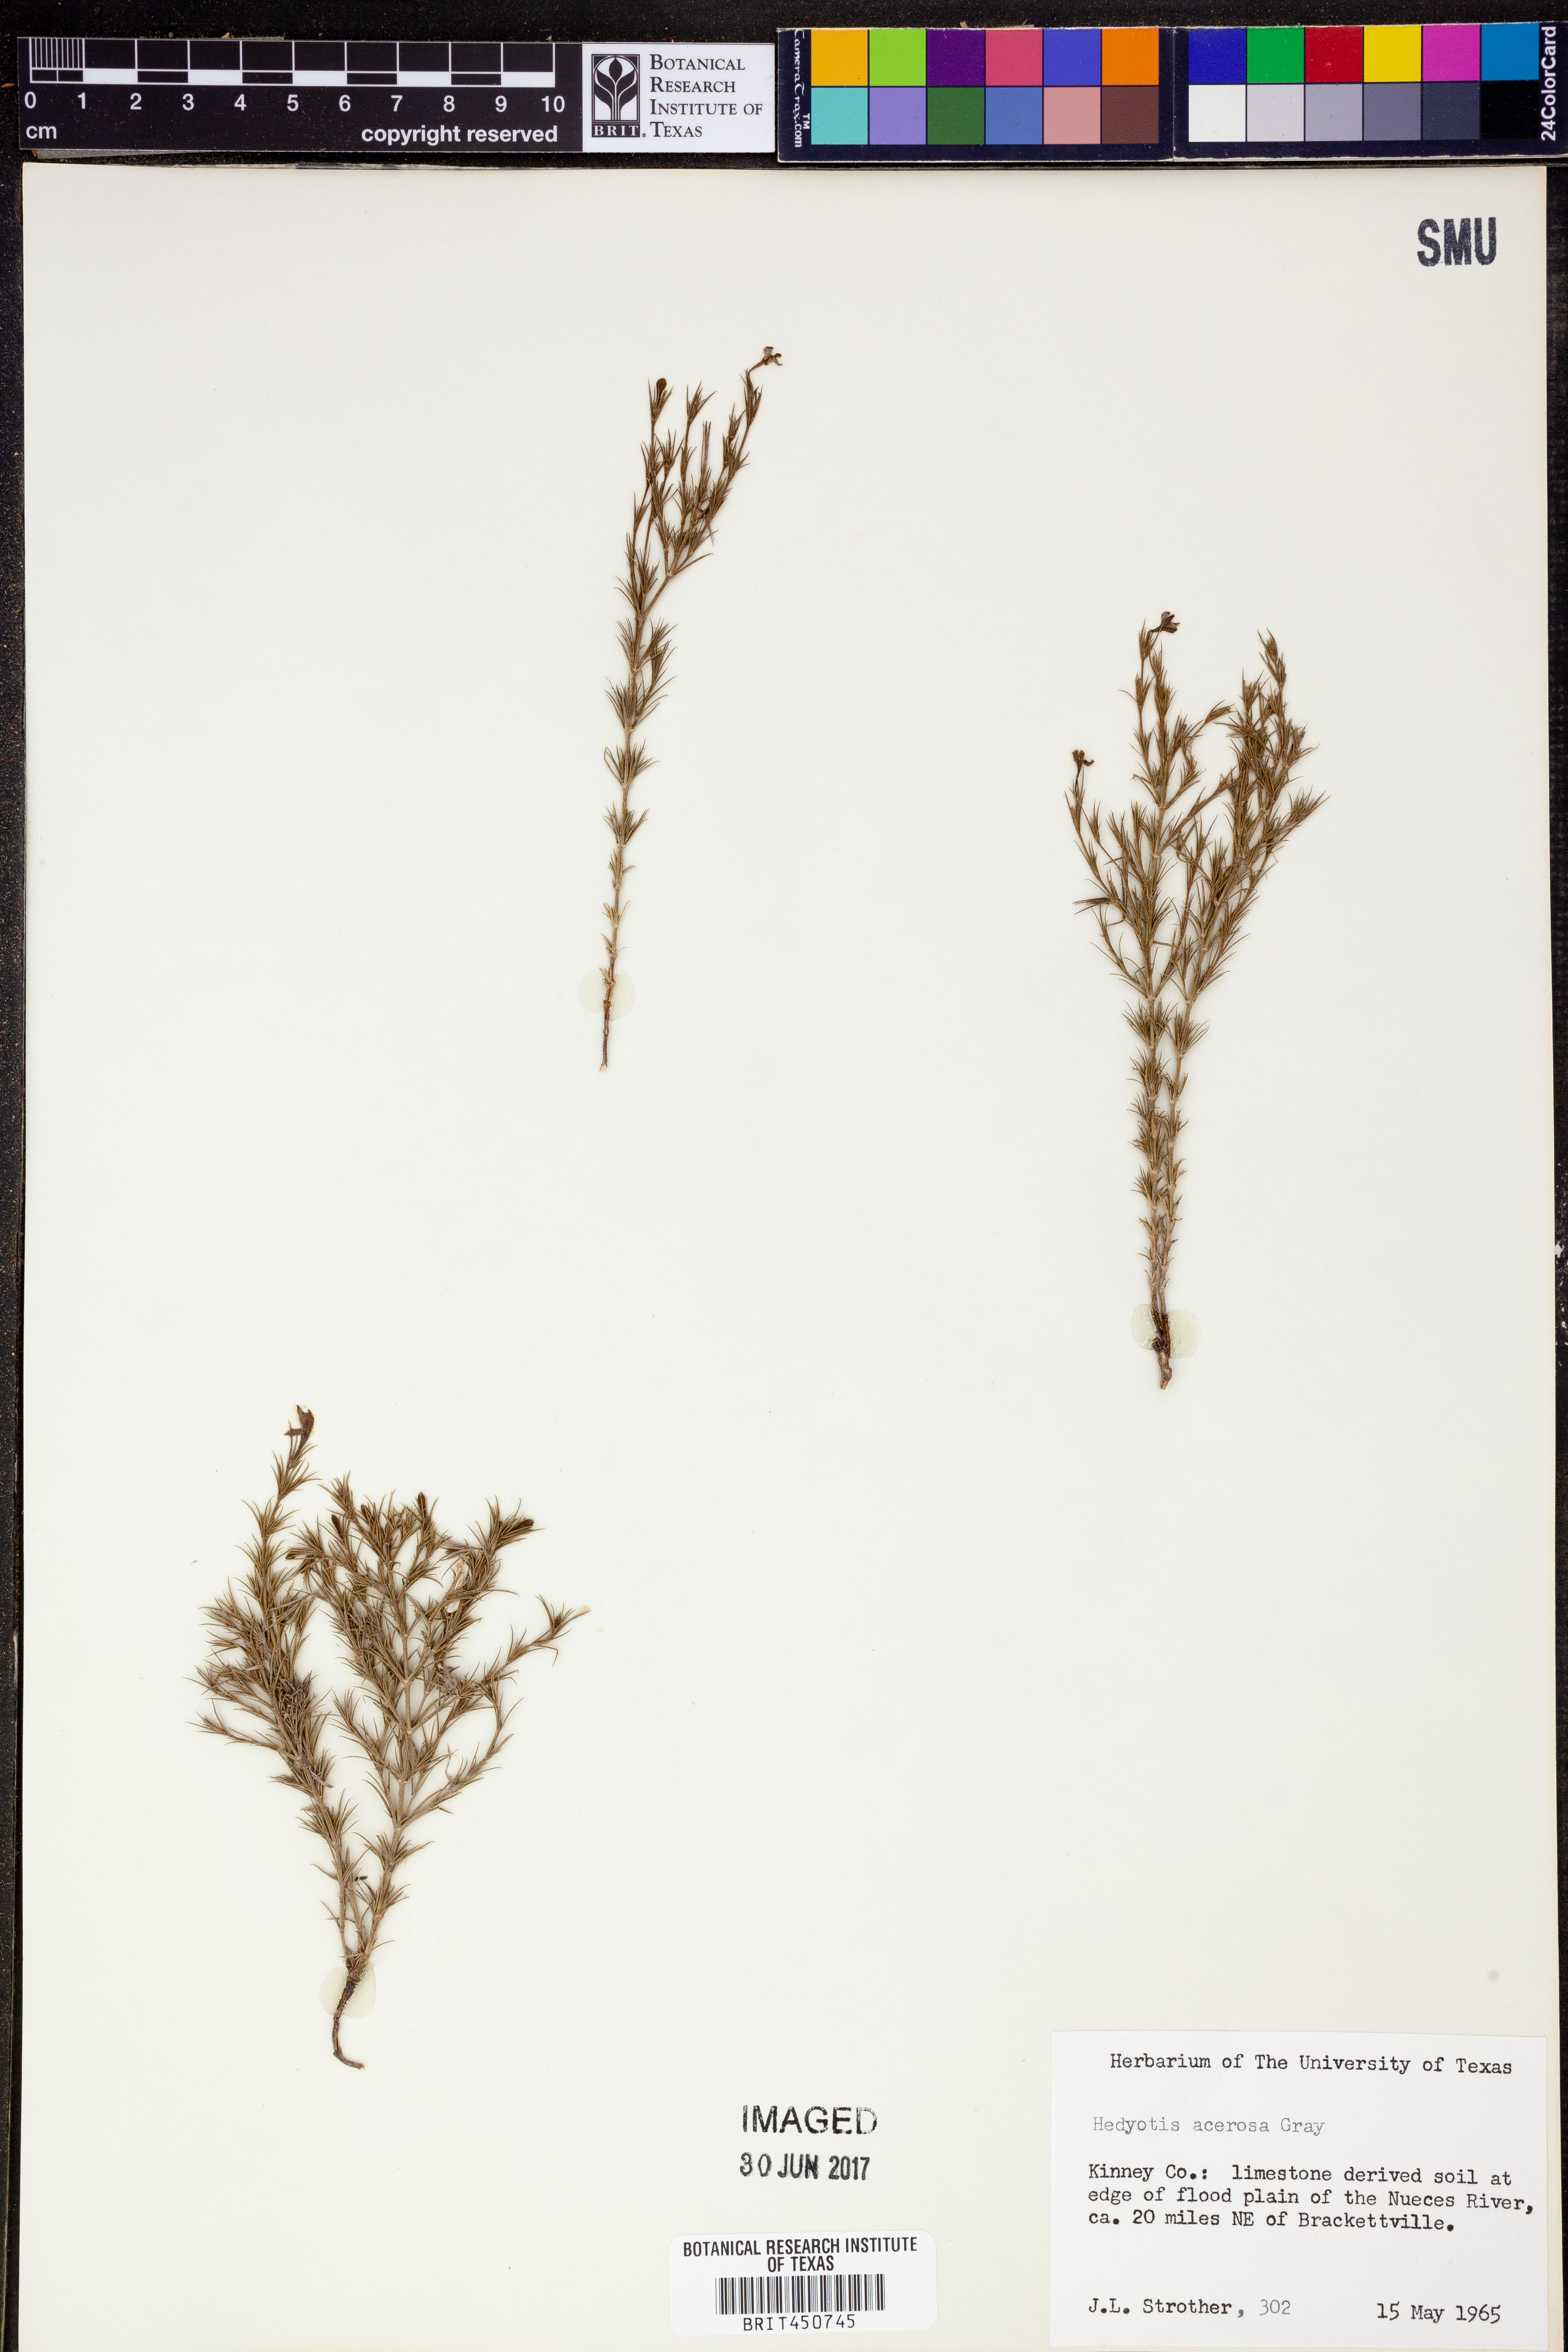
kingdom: Plantae
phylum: Tracheophyta
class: Magnoliopsida
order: Gentianales
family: Rubiaceae
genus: Houstonia
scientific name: Houstonia acerosa
